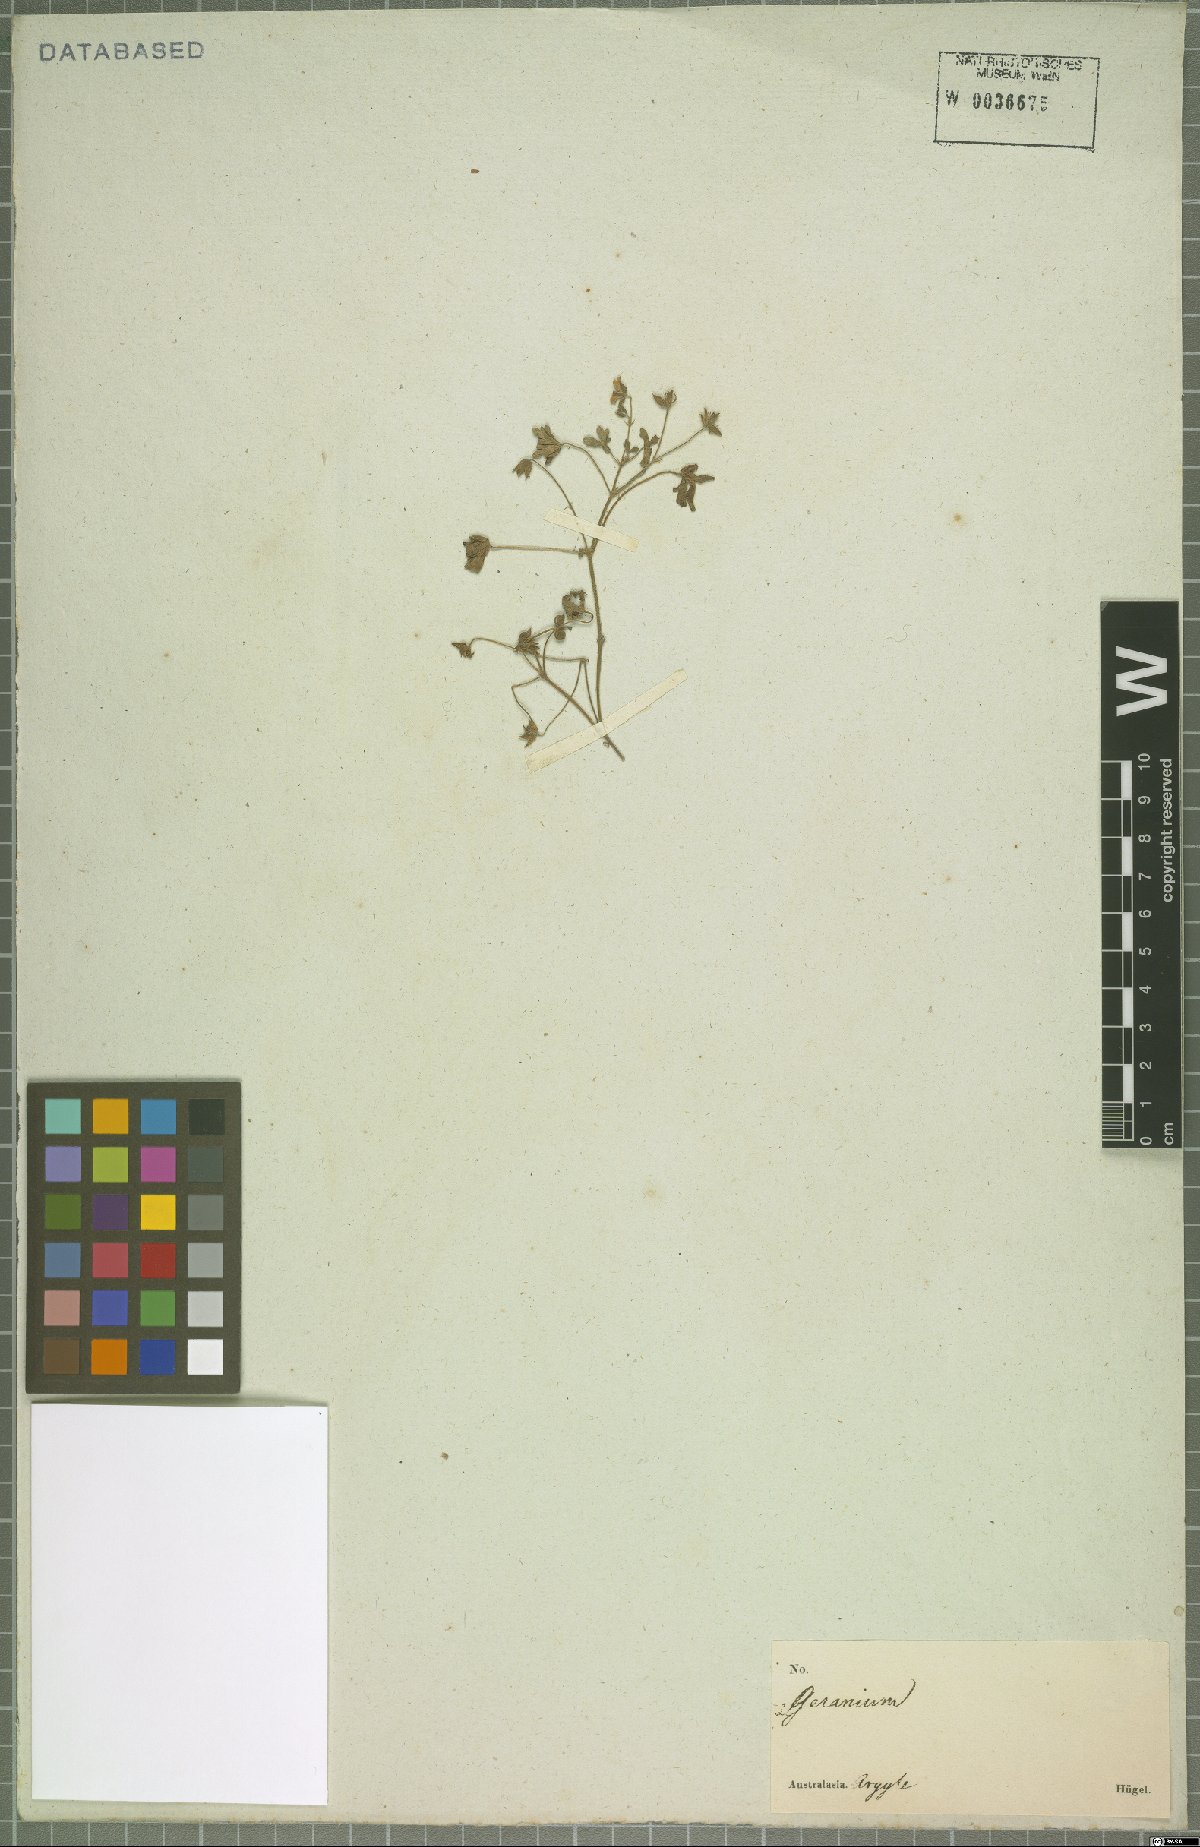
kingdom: Plantae
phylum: Tracheophyta
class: Magnoliopsida
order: Geraniales
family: Geraniaceae
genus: Geranium
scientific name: Geranium homeanum
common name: Australasian geranium
